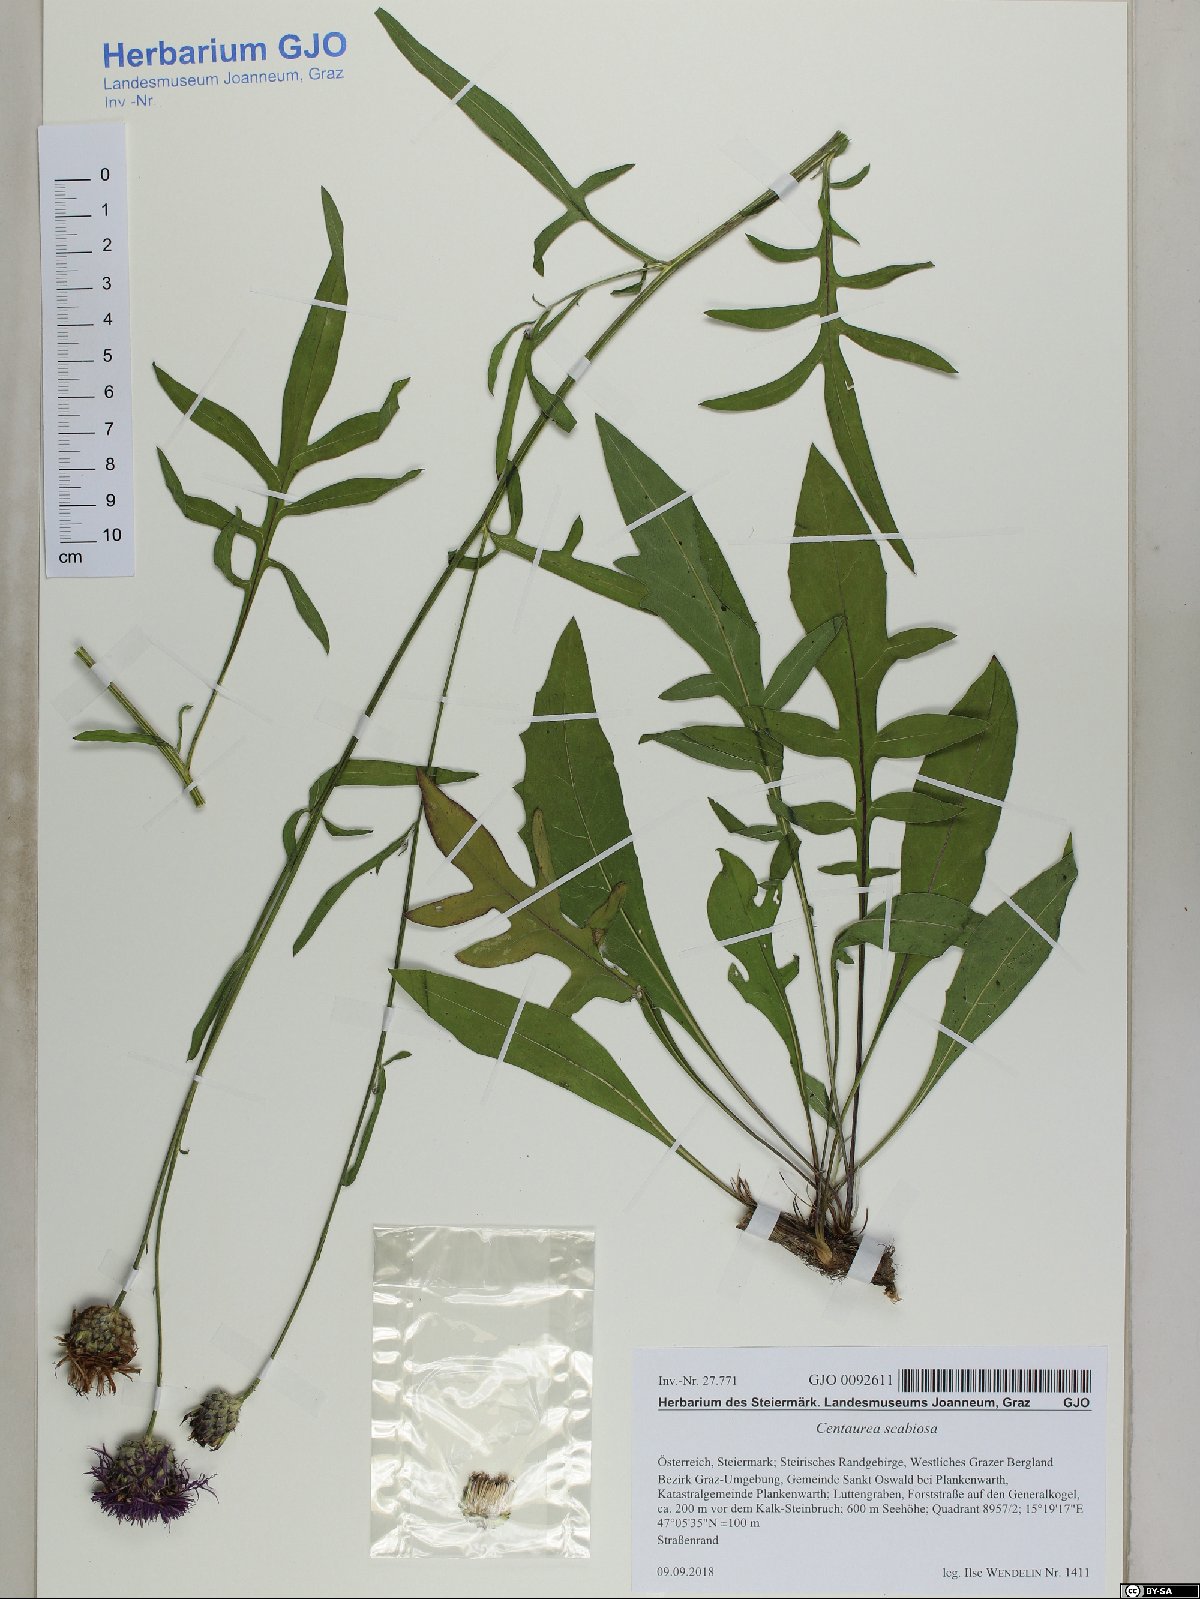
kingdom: Plantae
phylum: Tracheophyta
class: Magnoliopsida
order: Asterales
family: Asteraceae
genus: Centaurea
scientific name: Centaurea scabiosa
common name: Greater knapweed
